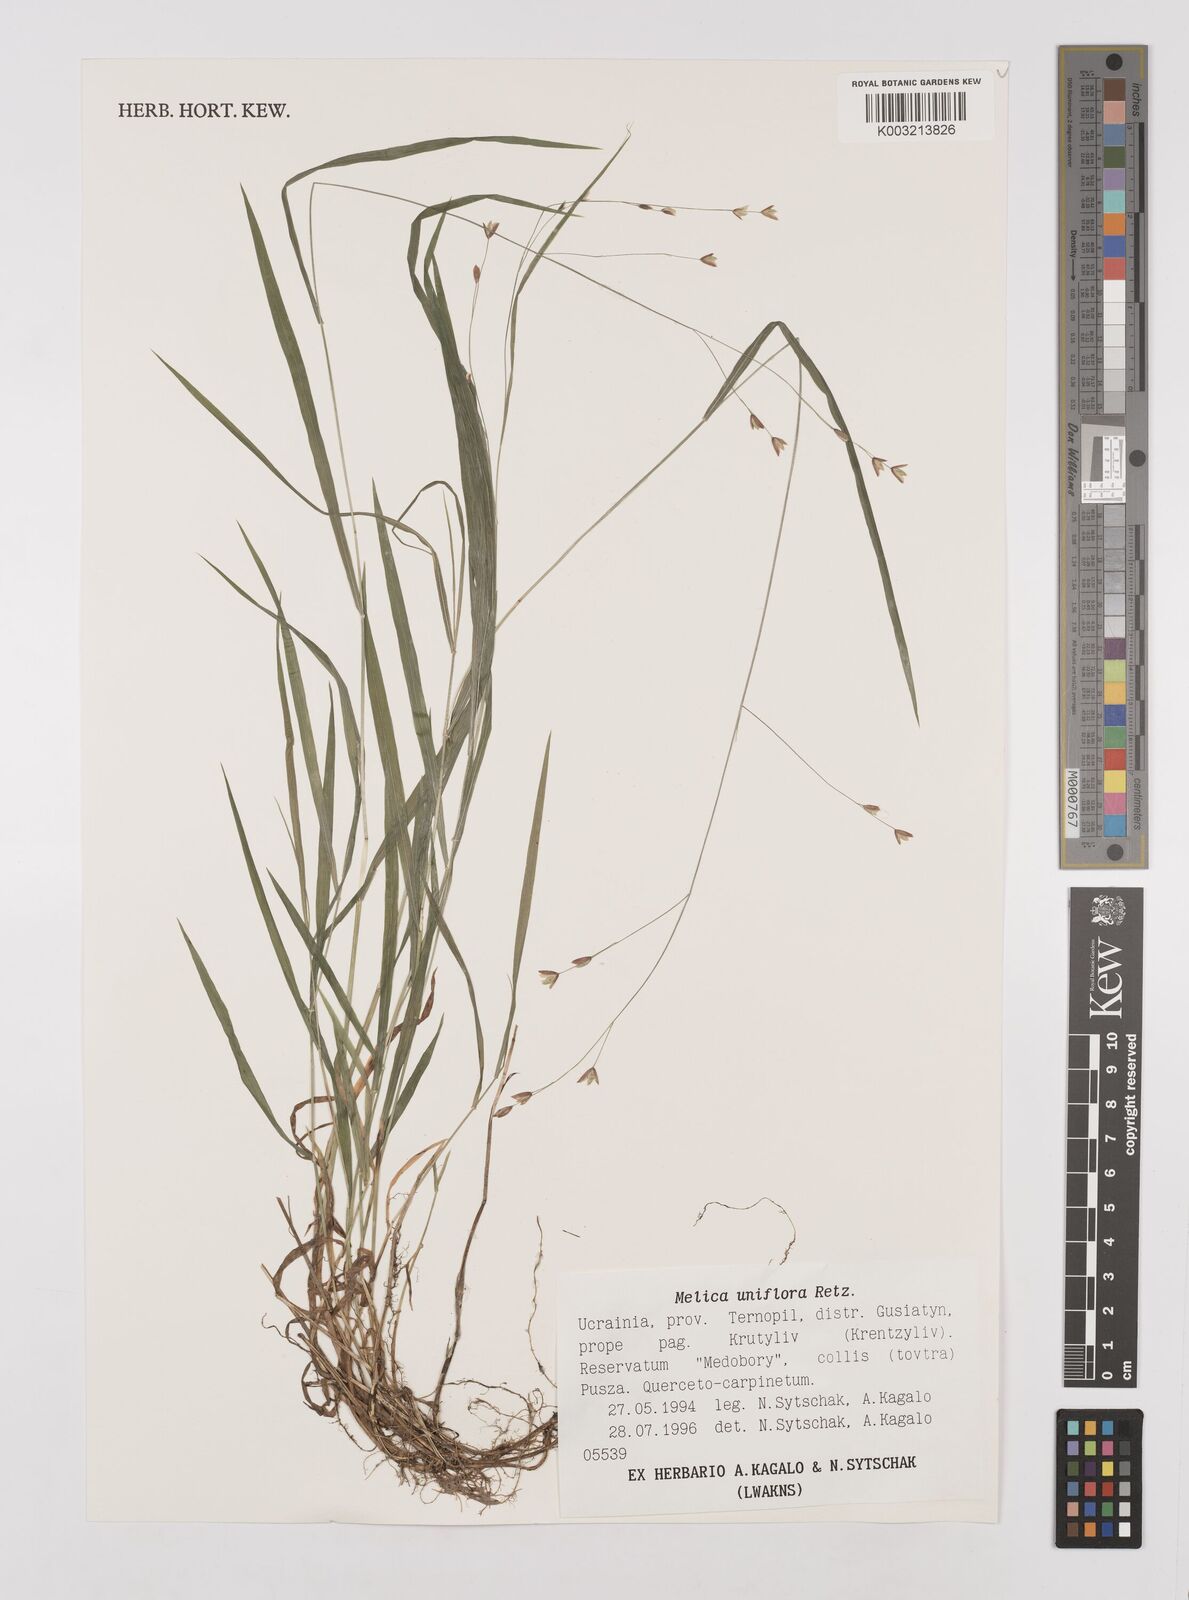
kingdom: Plantae
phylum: Tracheophyta
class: Liliopsida
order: Poales
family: Poaceae
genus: Melica
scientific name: Melica uniflora
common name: Wood melick
